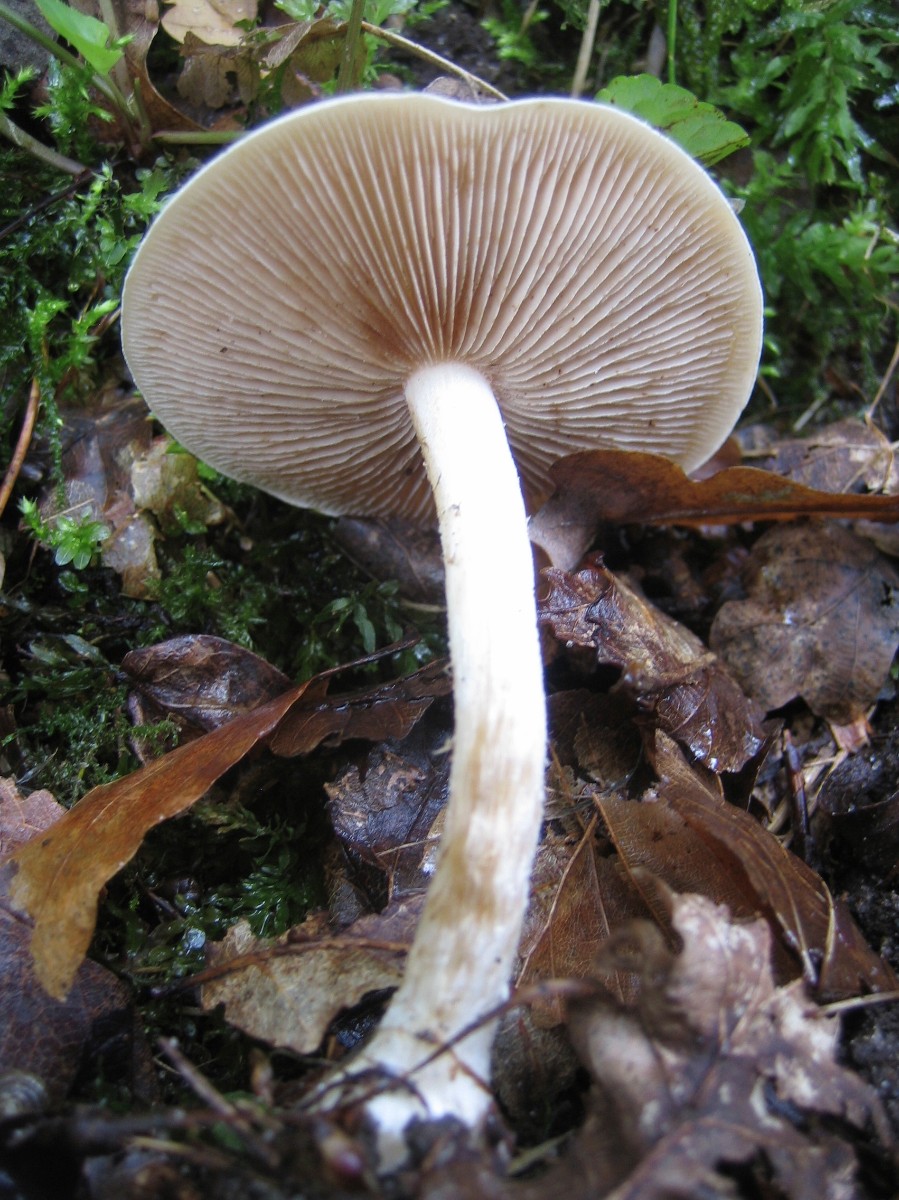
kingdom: Fungi
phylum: Basidiomycota
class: Agaricomycetes
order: Agaricales
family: Hymenogastraceae
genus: Hebeloma
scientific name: Hebeloma
